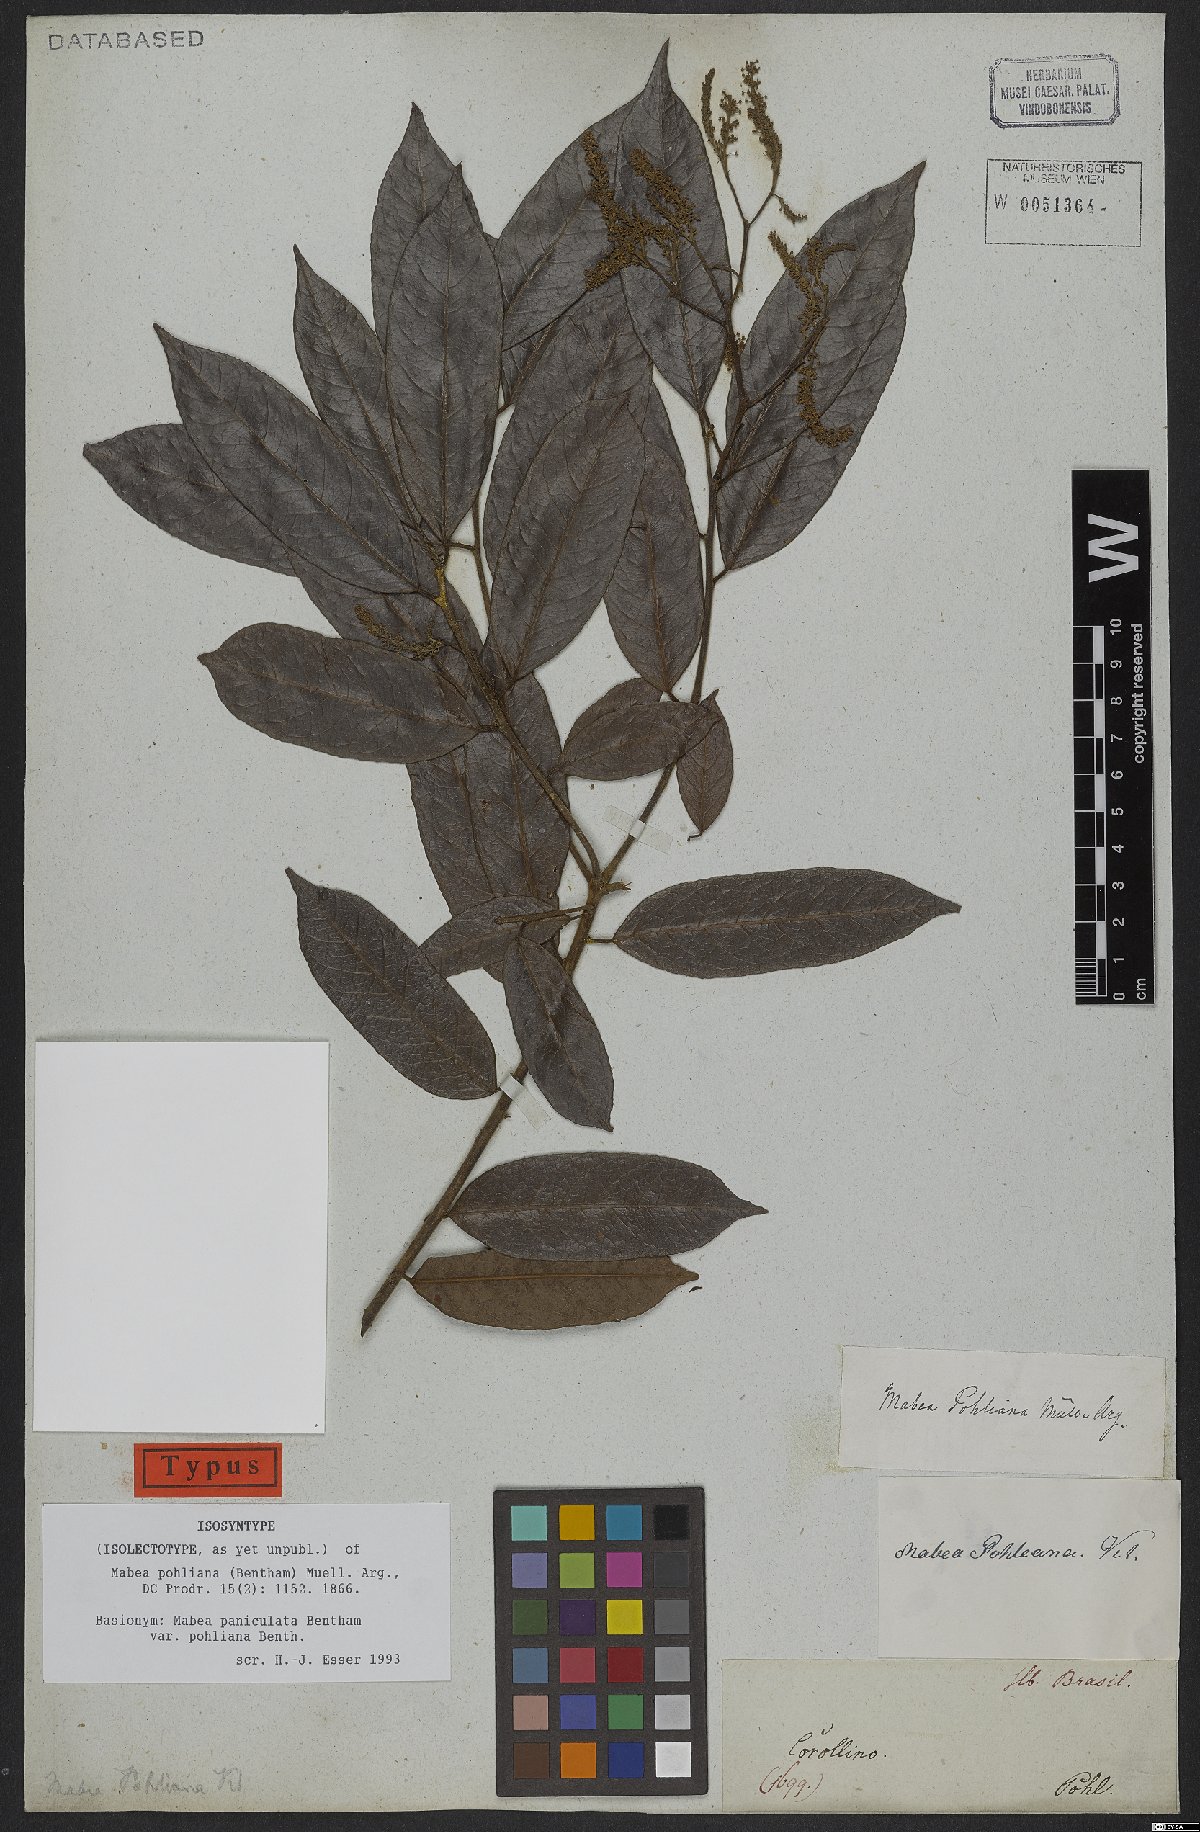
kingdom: Plantae
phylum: Tracheophyta
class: Magnoliopsida
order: Malpighiales
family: Euphorbiaceae
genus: Mabea
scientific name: Mabea pohliana
